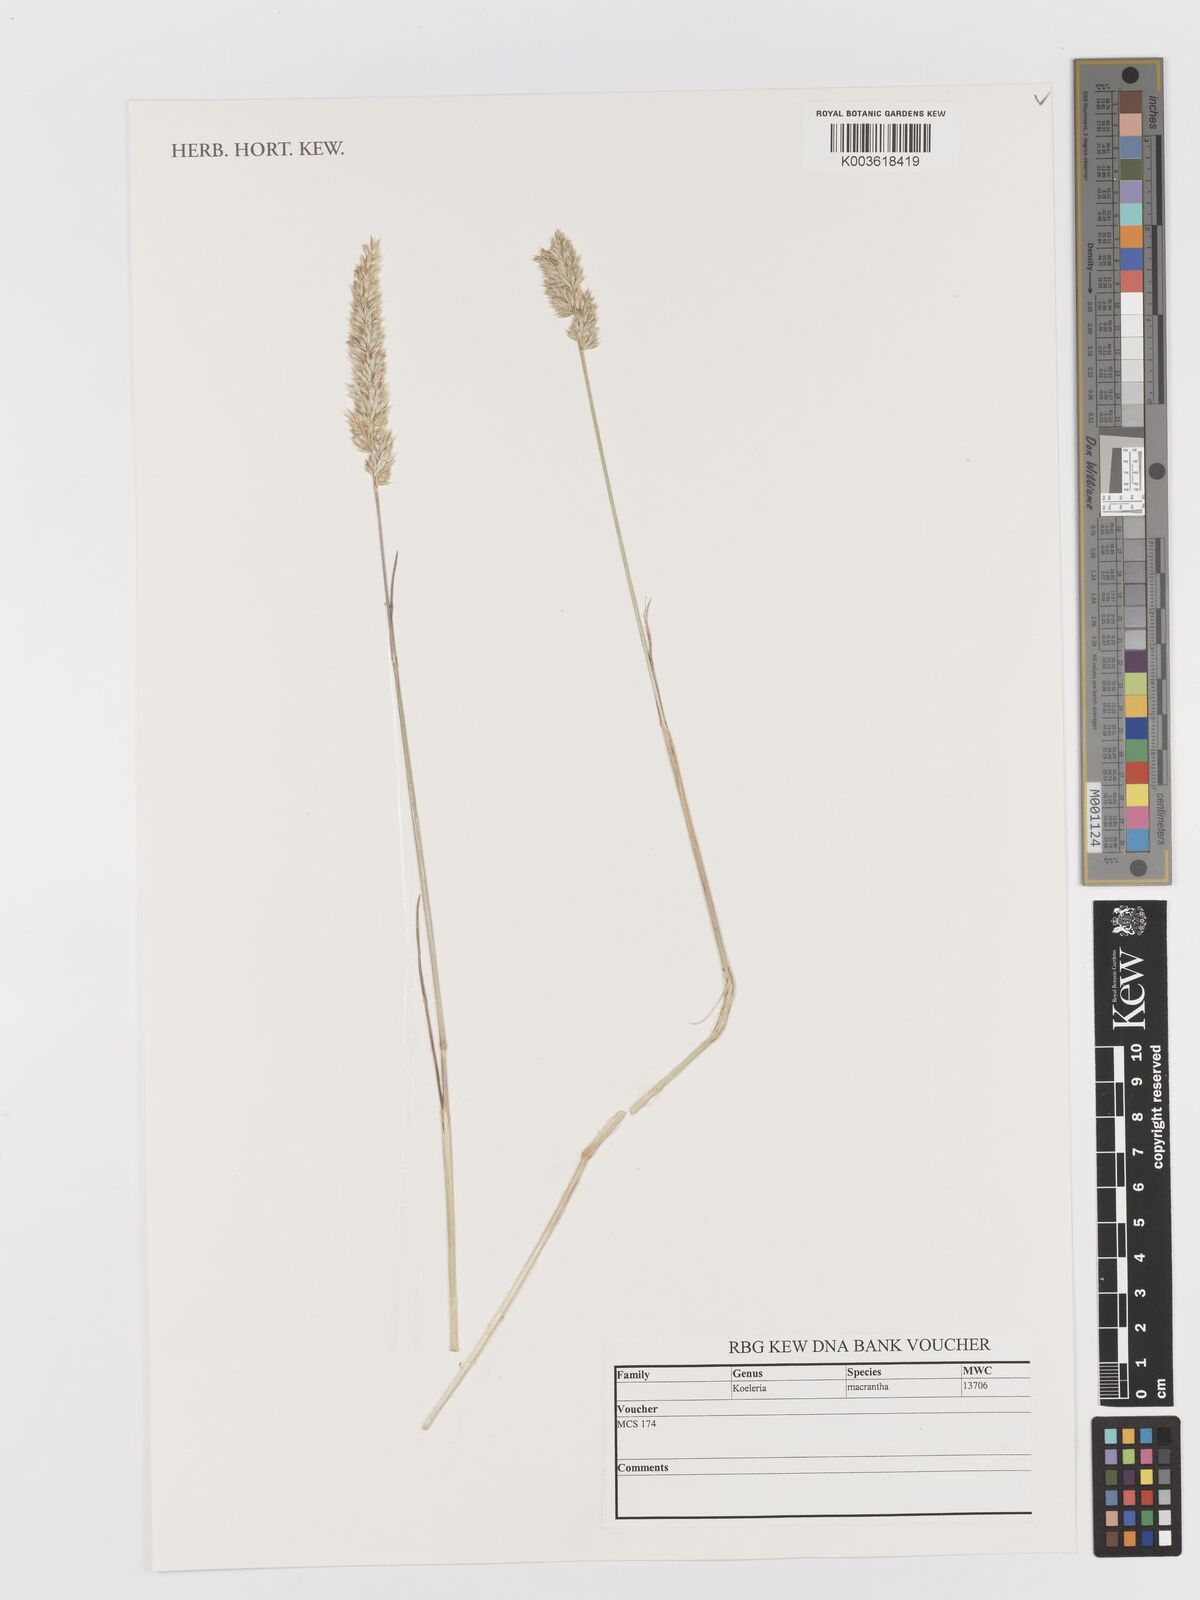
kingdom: Plantae
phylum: Tracheophyta
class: Liliopsida
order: Poales
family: Poaceae
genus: Koeleria
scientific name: Koeleria macrantha
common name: Crested hair-grass
